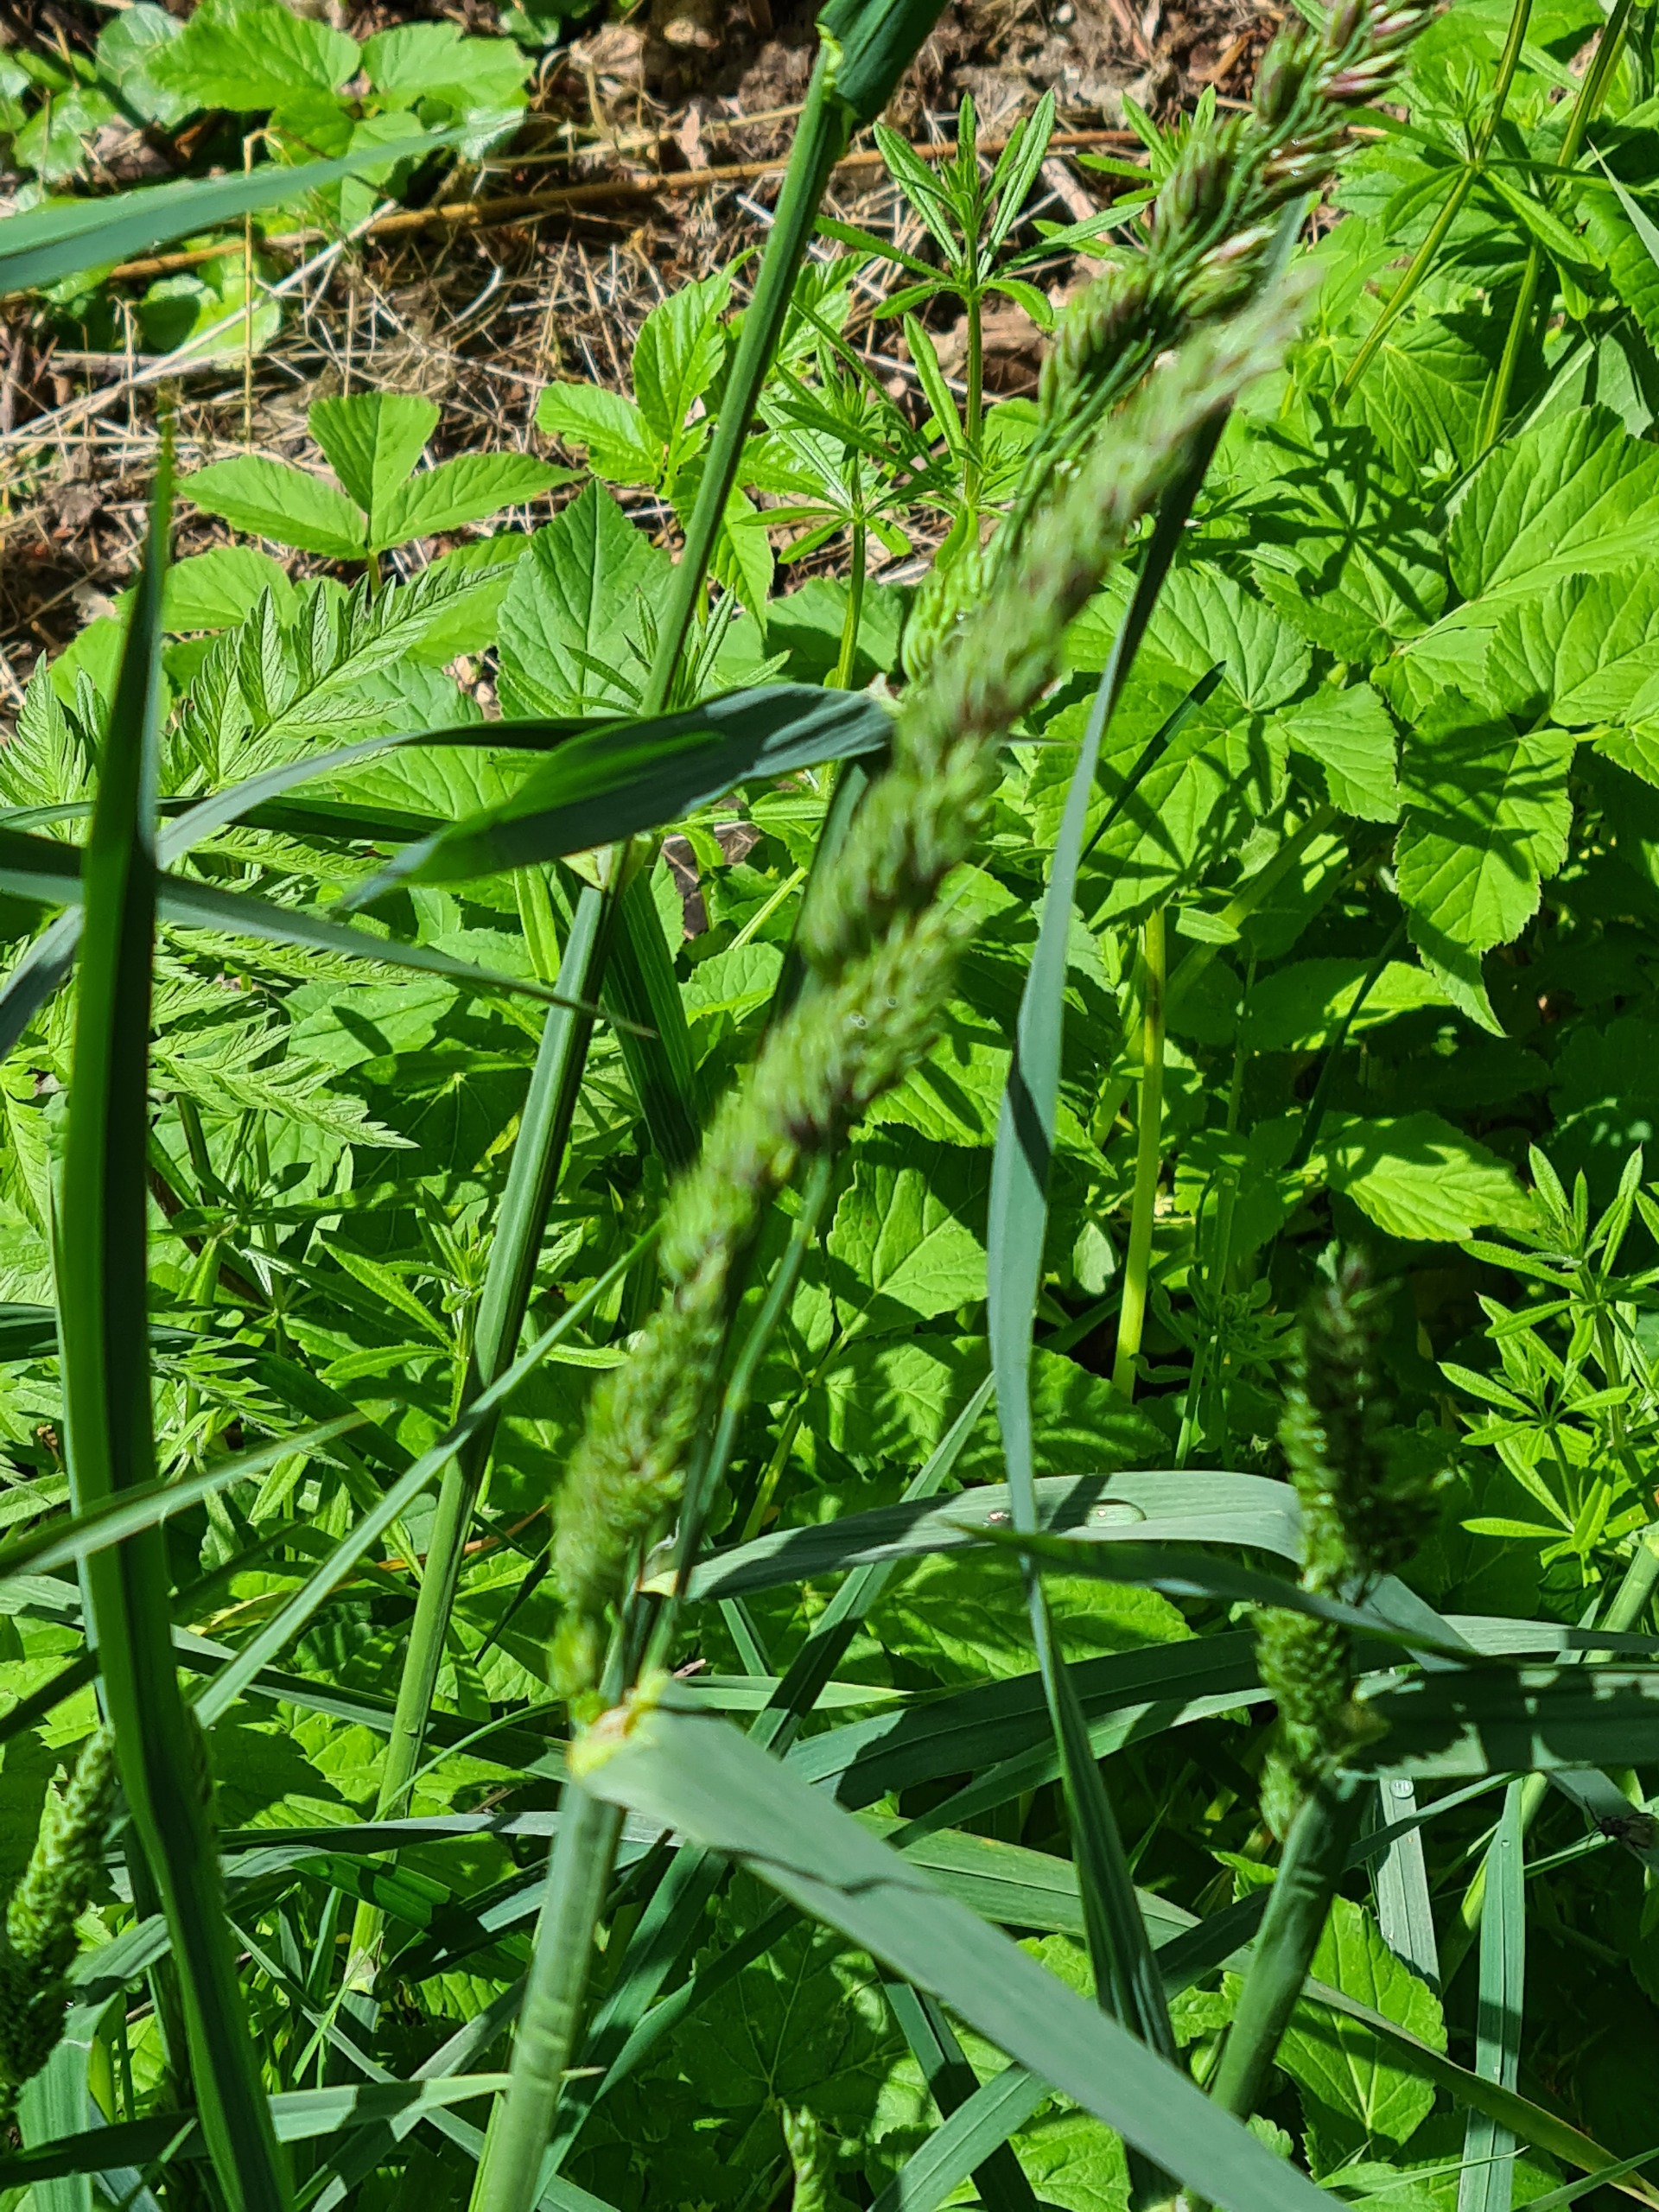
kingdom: Plantae
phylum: Tracheophyta
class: Liliopsida
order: Poales
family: Poaceae
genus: Dactylis
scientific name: Dactylis glomerata
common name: Almindelig hundegræs
